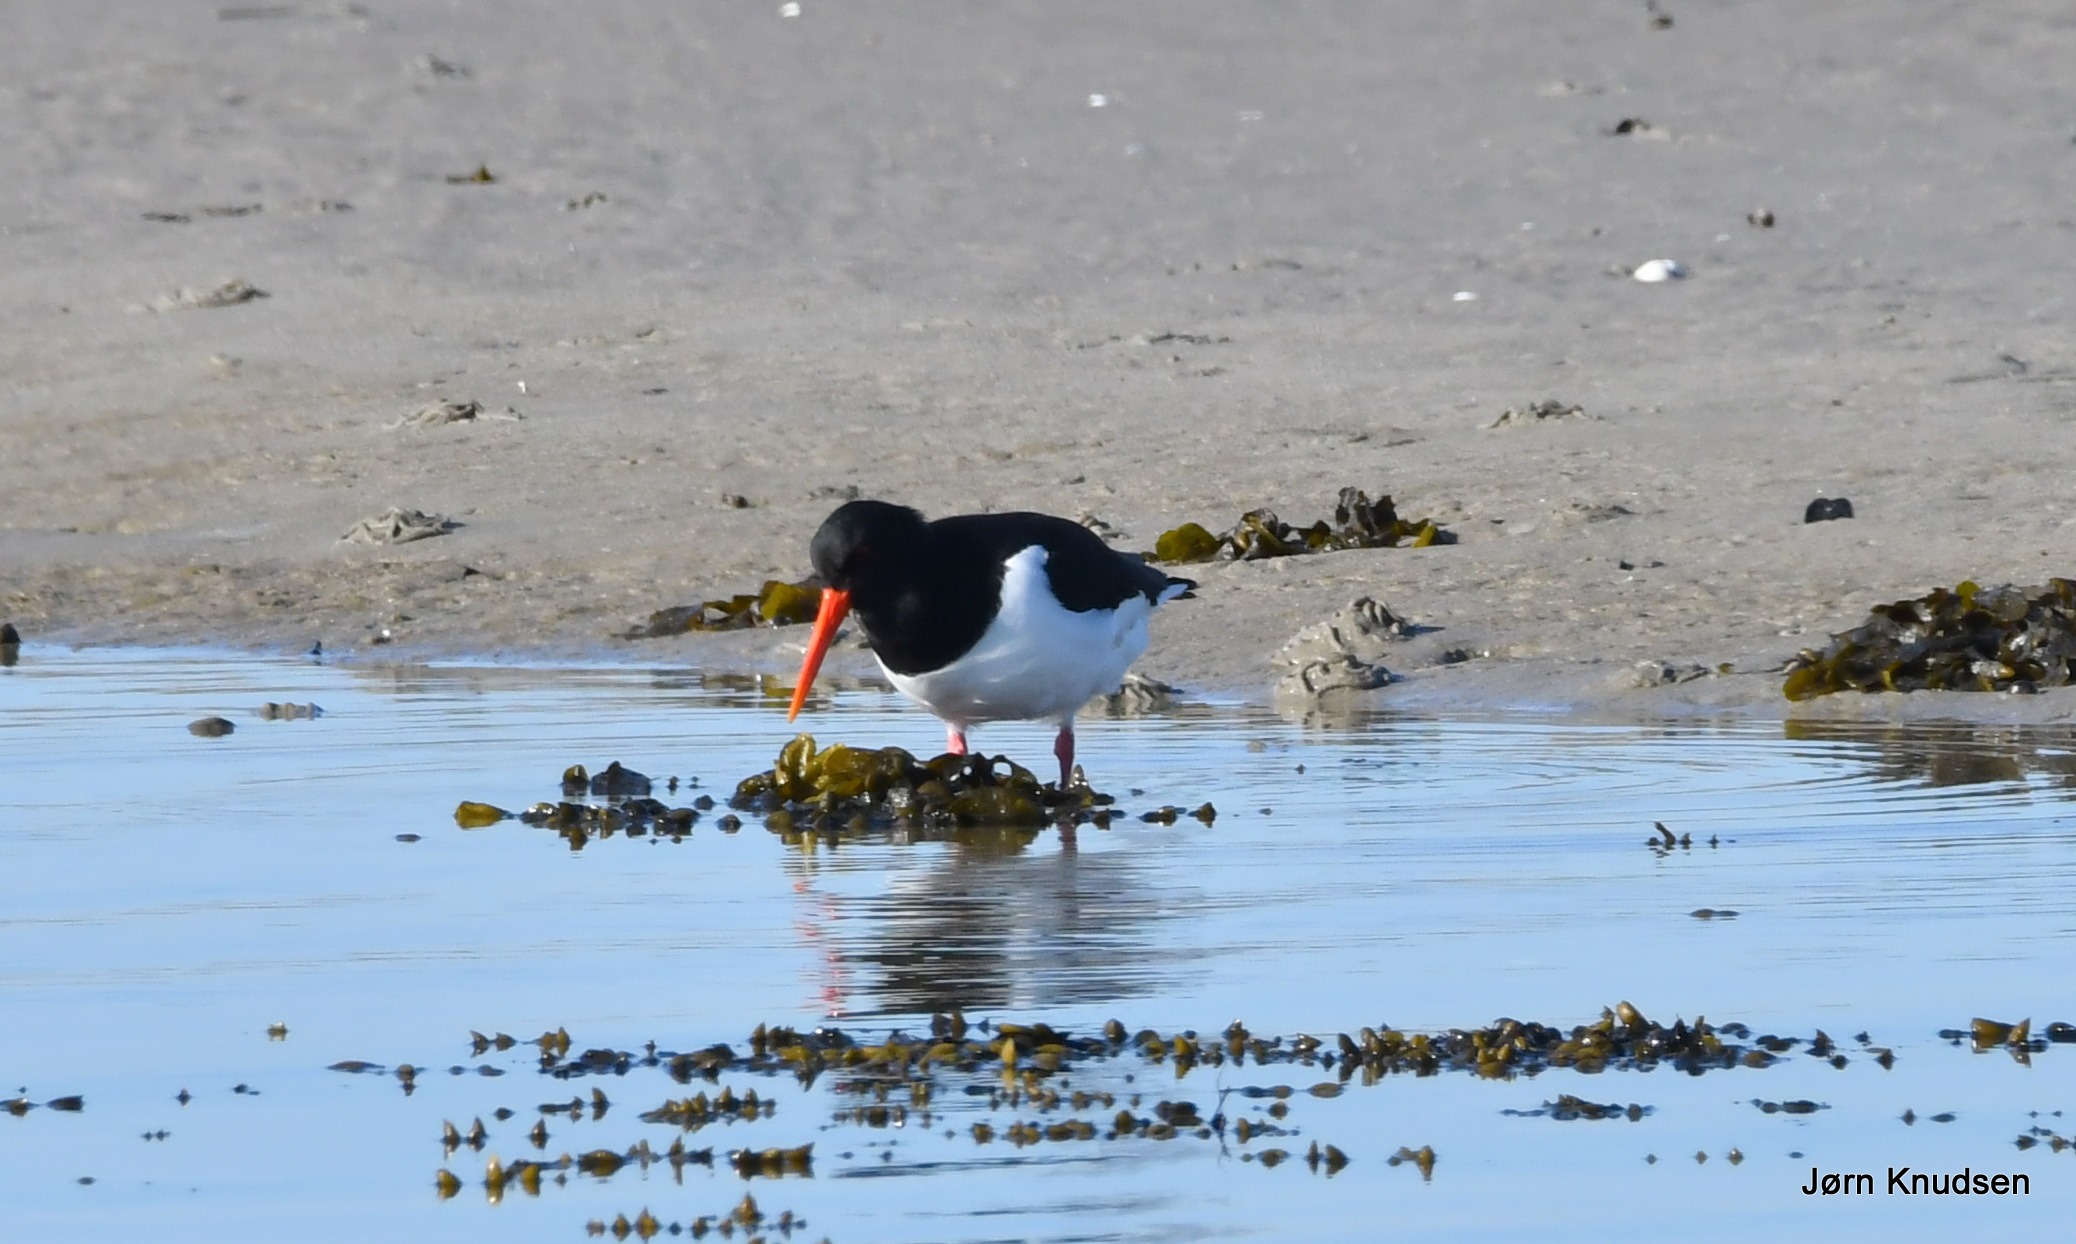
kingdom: Animalia
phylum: Chordata
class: Aves
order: Charadriiformes
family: Haematopodidae
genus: Haematopus
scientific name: Haematopus ostralegus
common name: Strandskade
